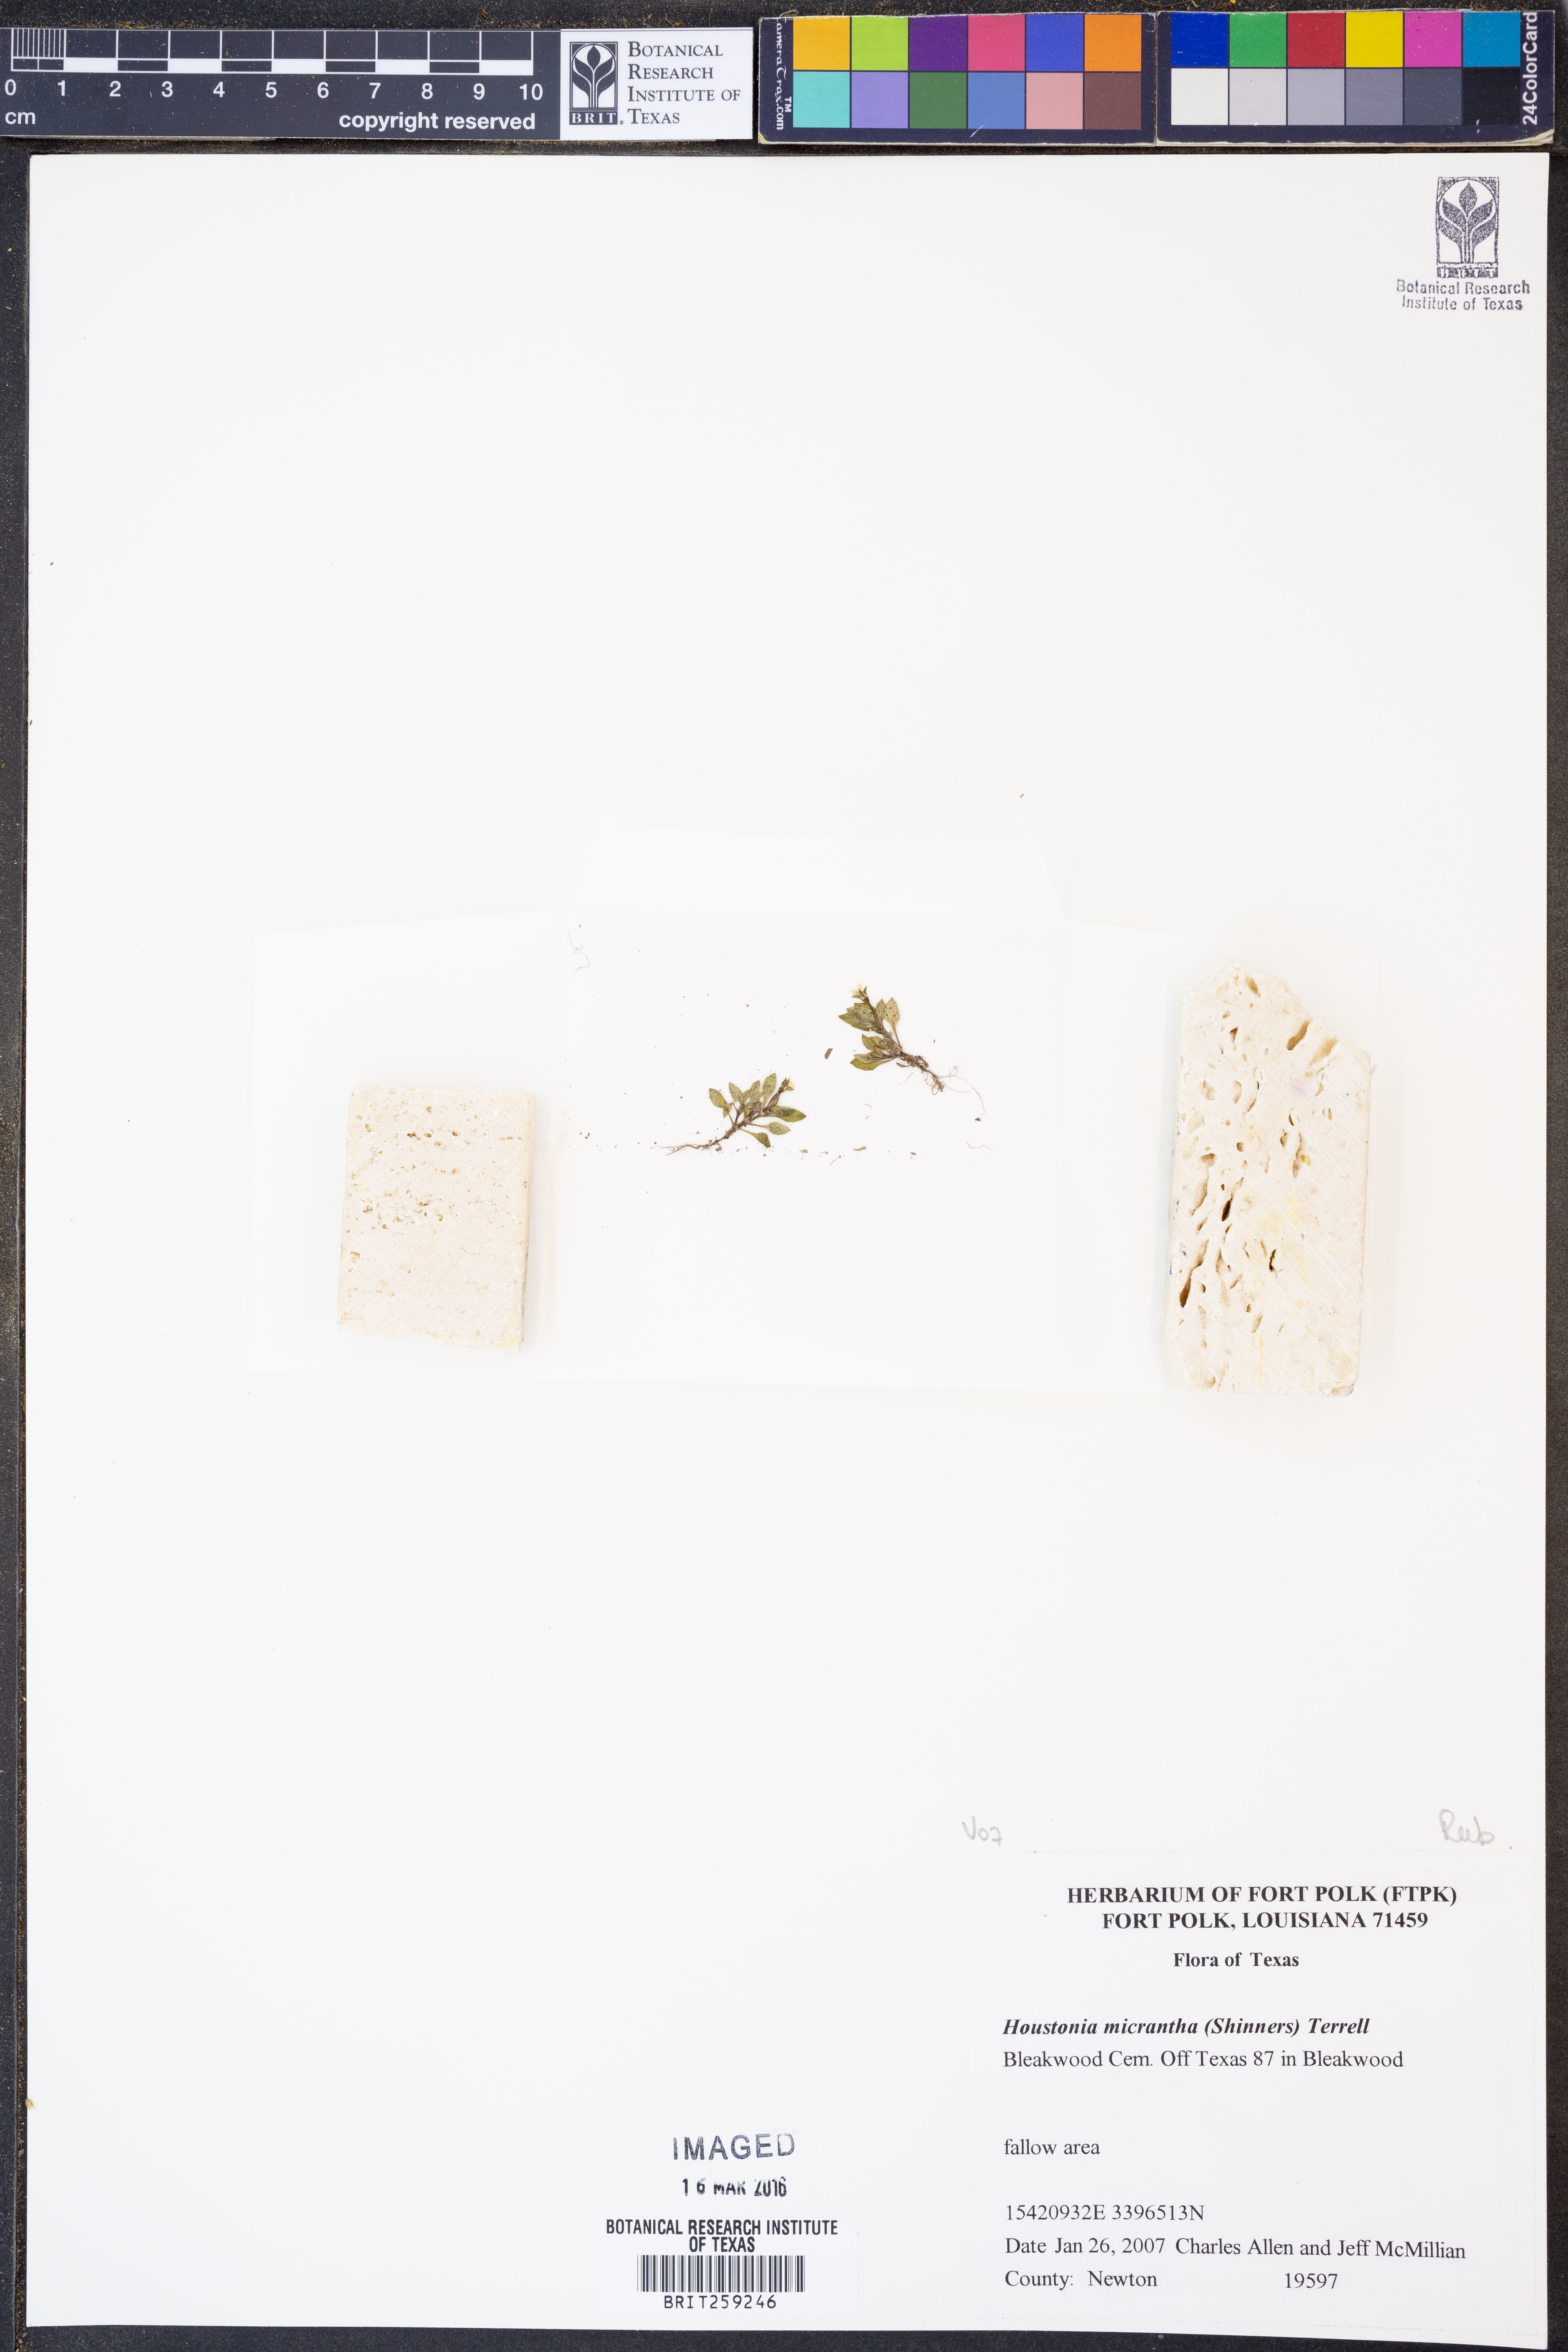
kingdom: Plantae
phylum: Tracheophyta
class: Magnoliopsida
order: Gentianales
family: Rubiaceae
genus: Houstonia
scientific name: Houstonia micrantha
